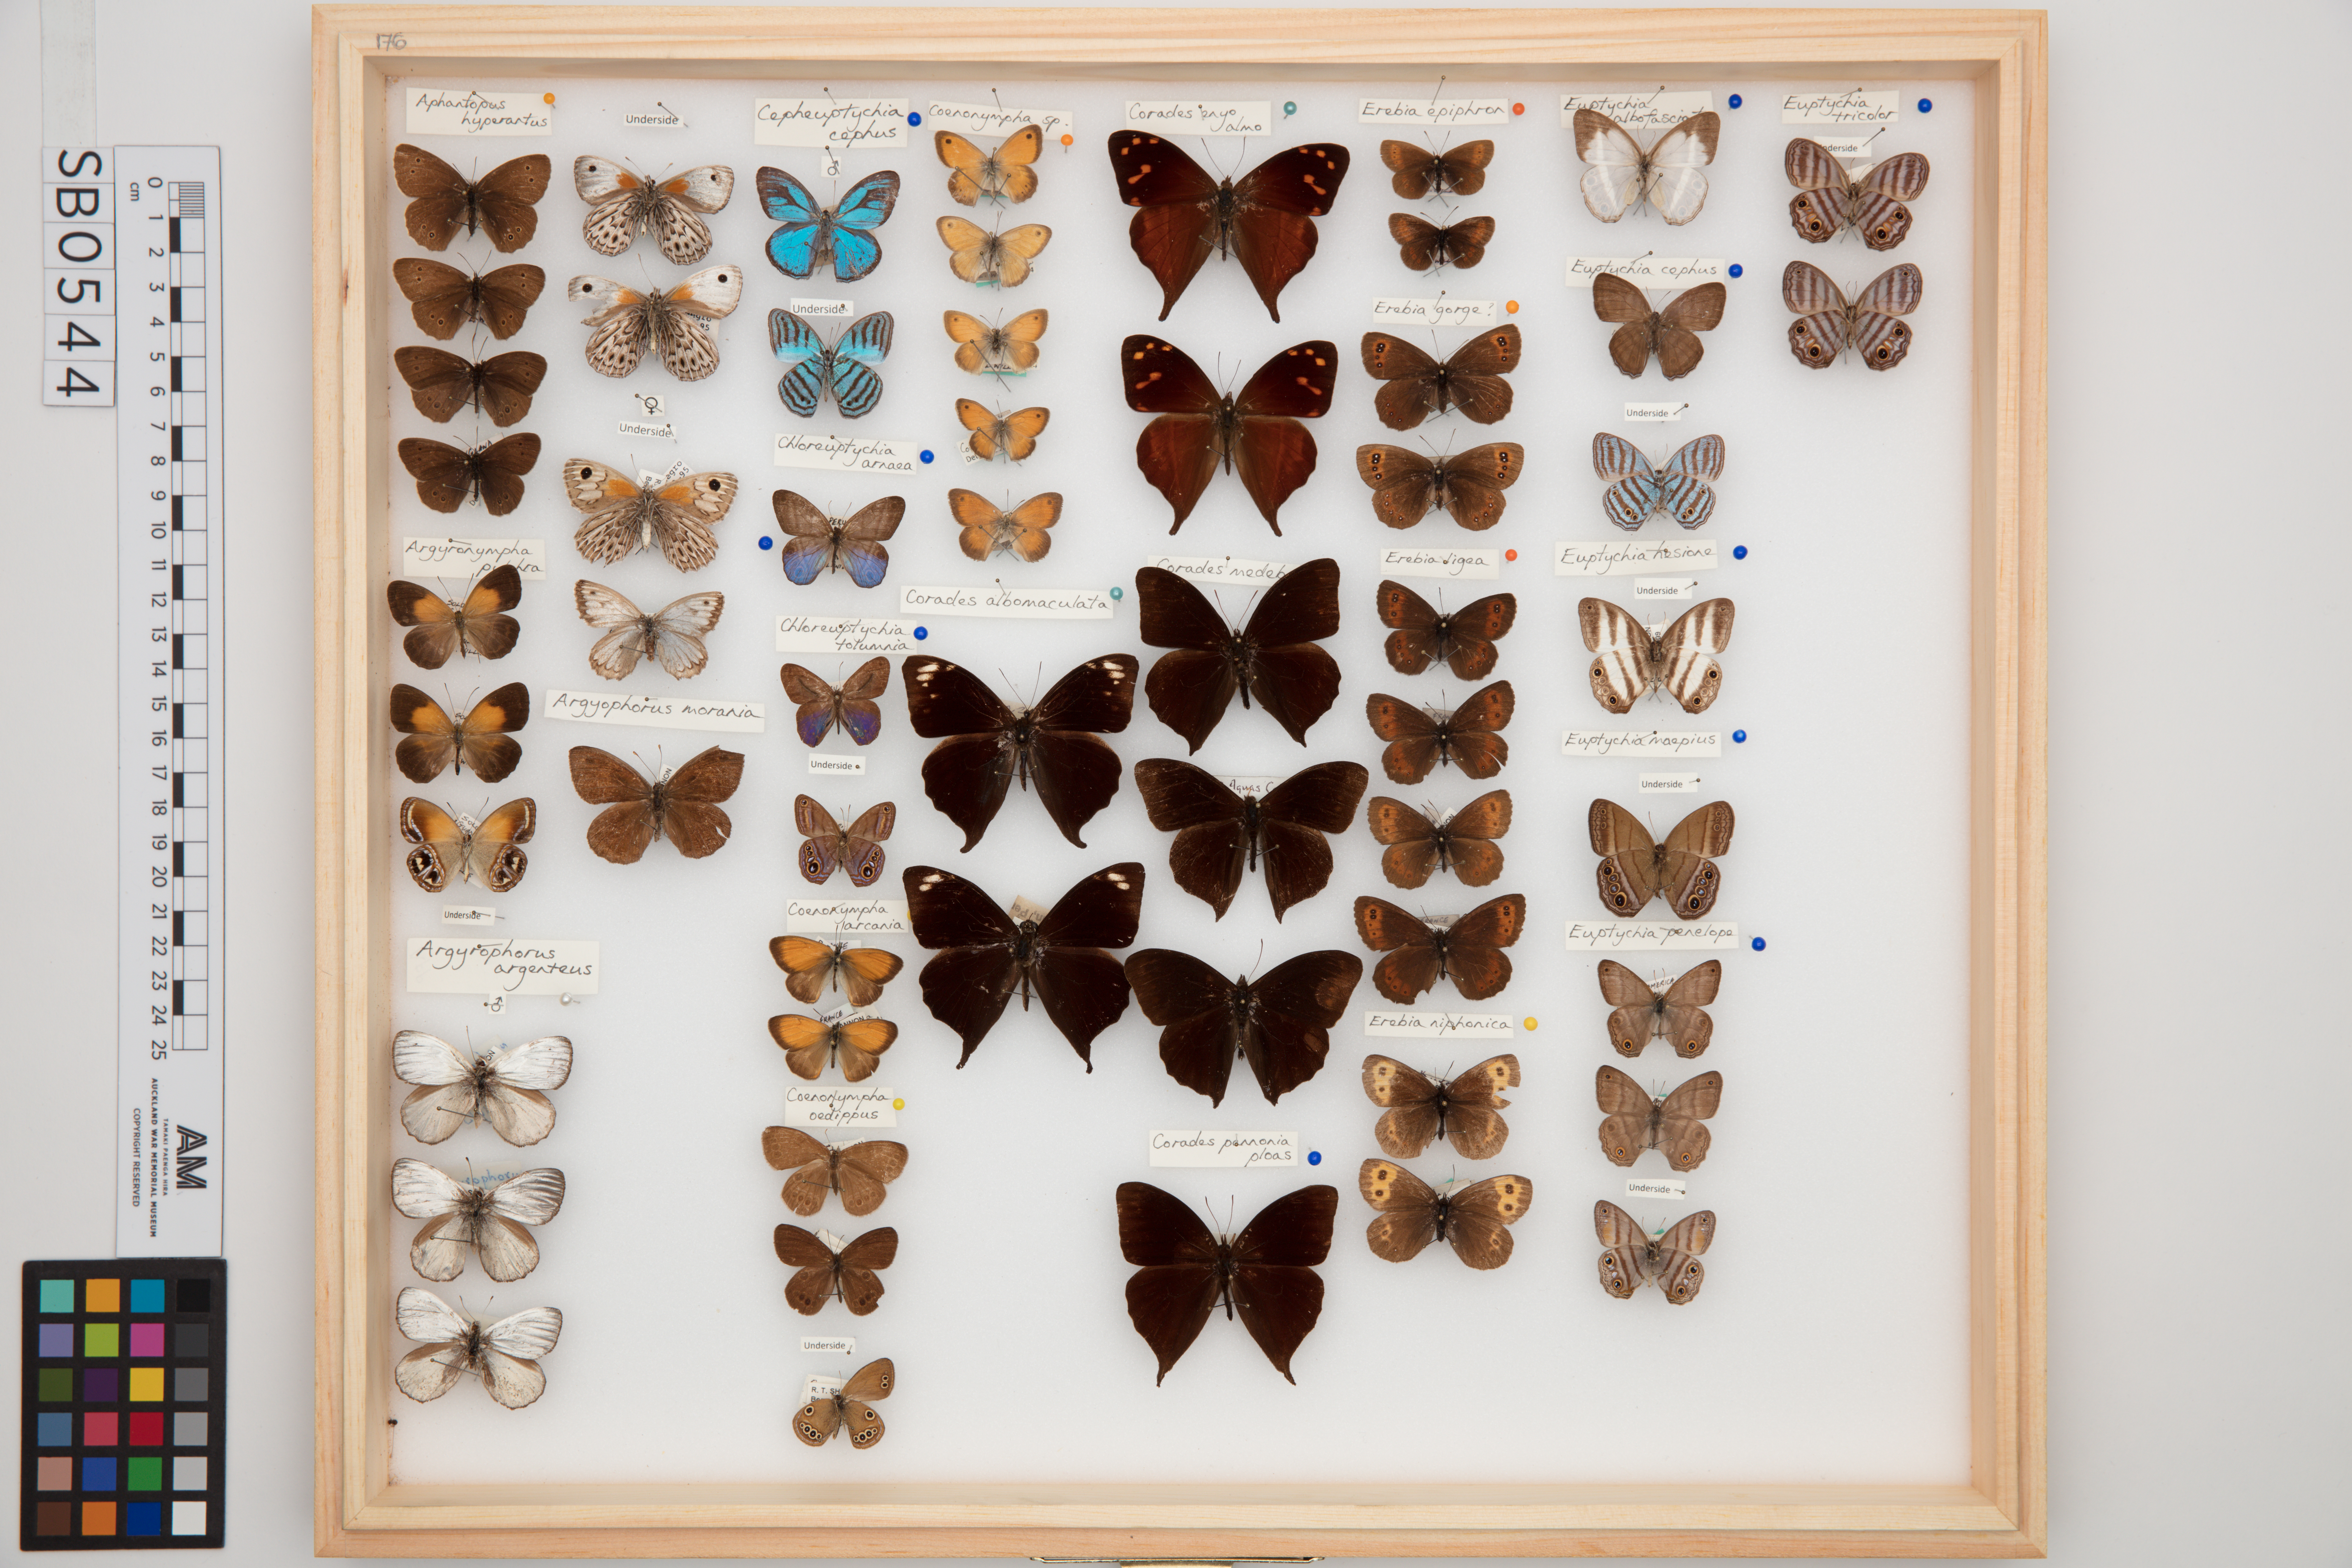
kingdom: Animalia
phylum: Arthropoda
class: Insecta
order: Lepidoptera
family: Nymphalidae
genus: Euptychia
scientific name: Euptychia hesione
